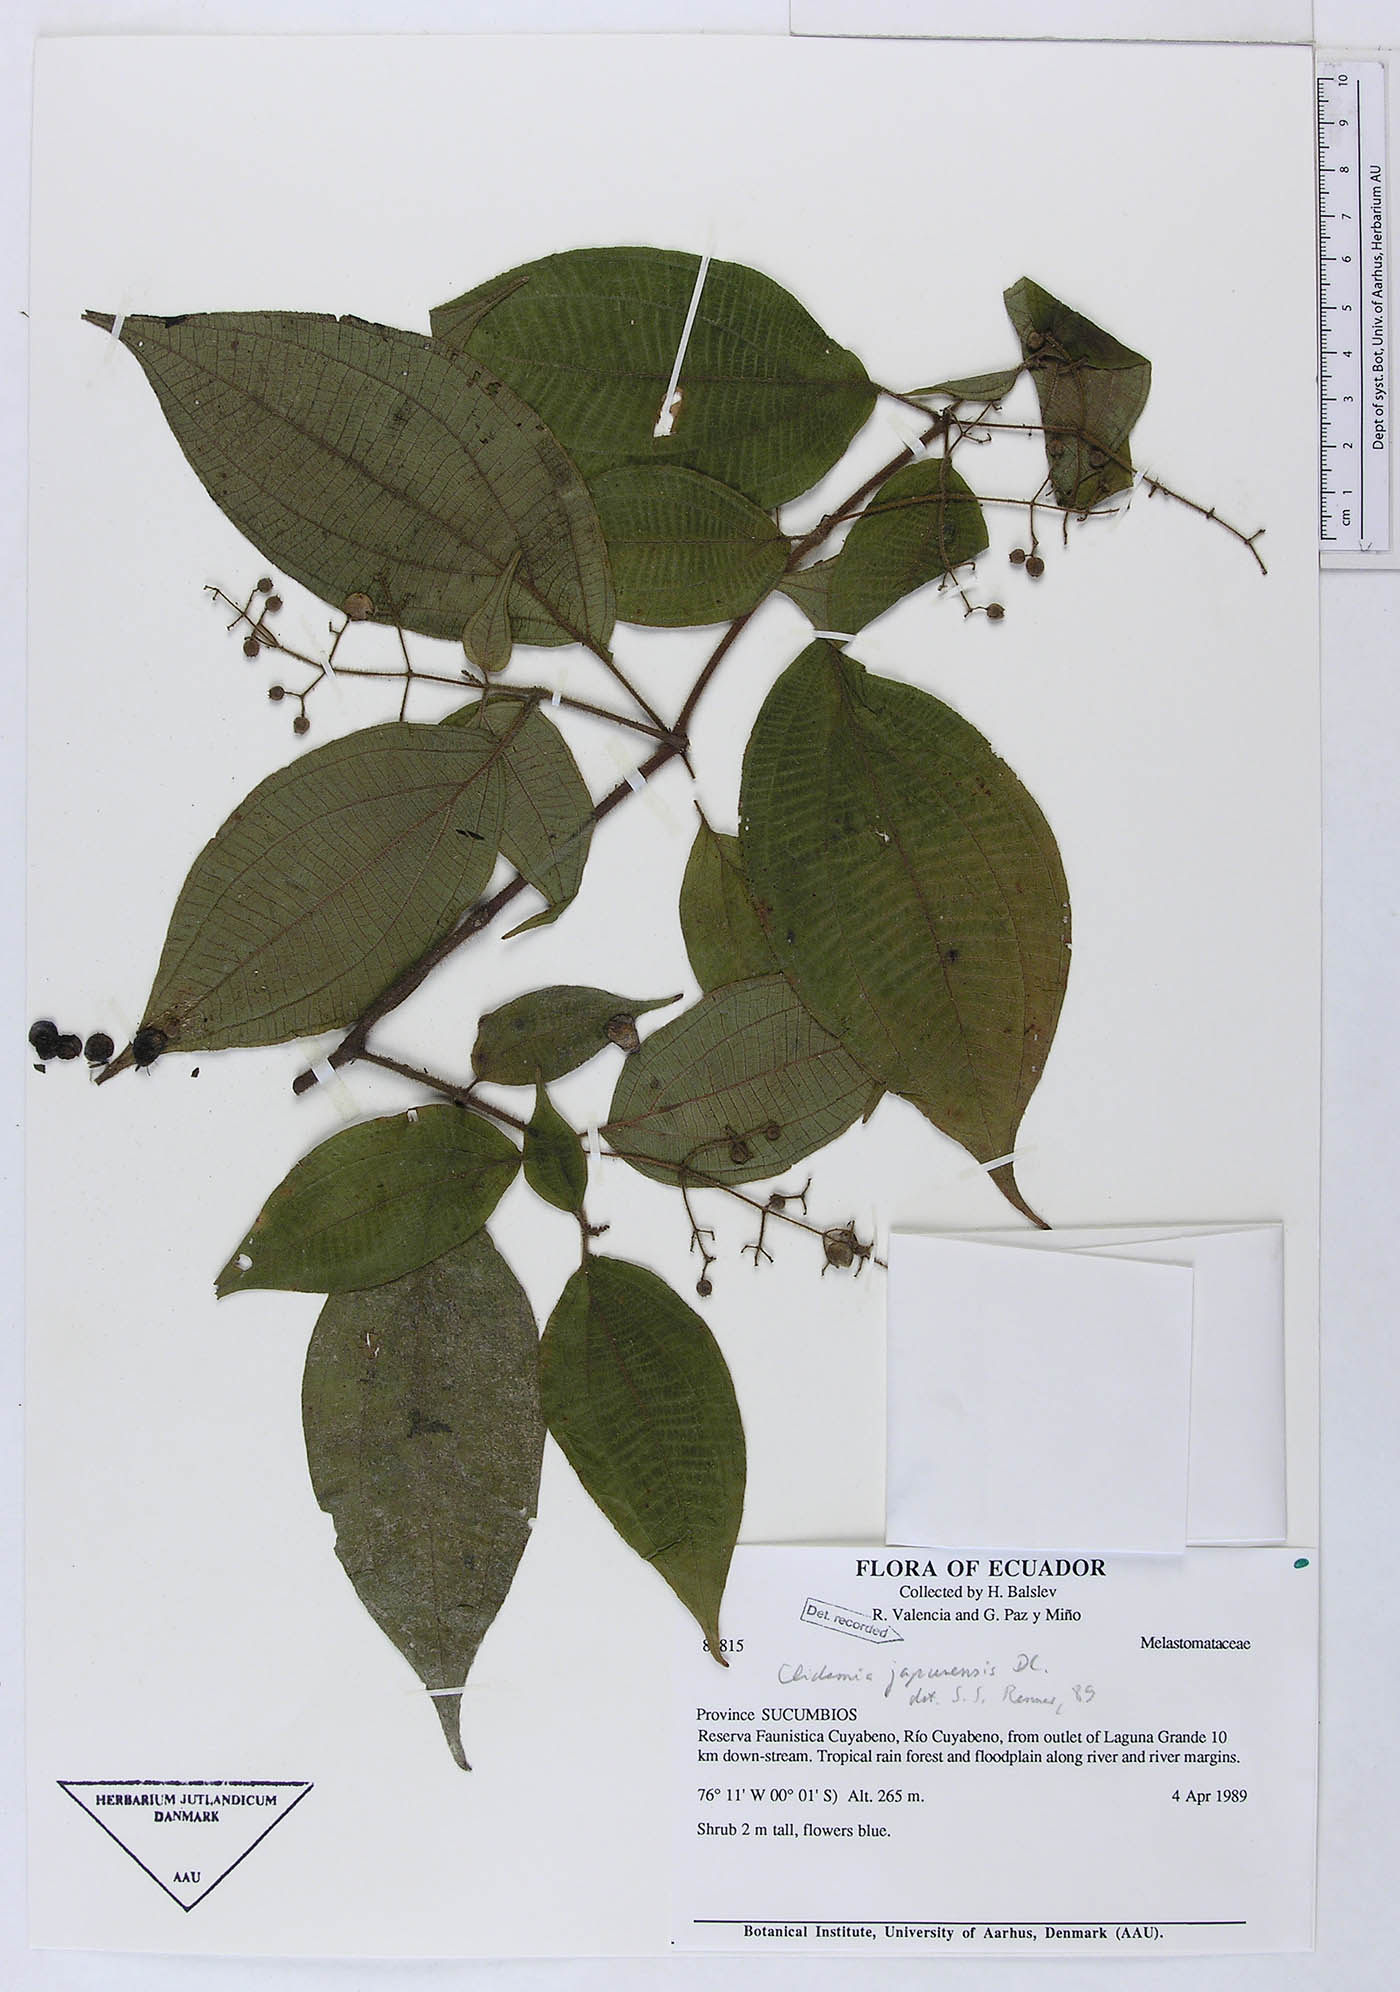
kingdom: Plantae
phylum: Tracheophyta
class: Magnoliopsida
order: Myrtales
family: Melastomataceae
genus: Miconia
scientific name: Miconia heteroclita
